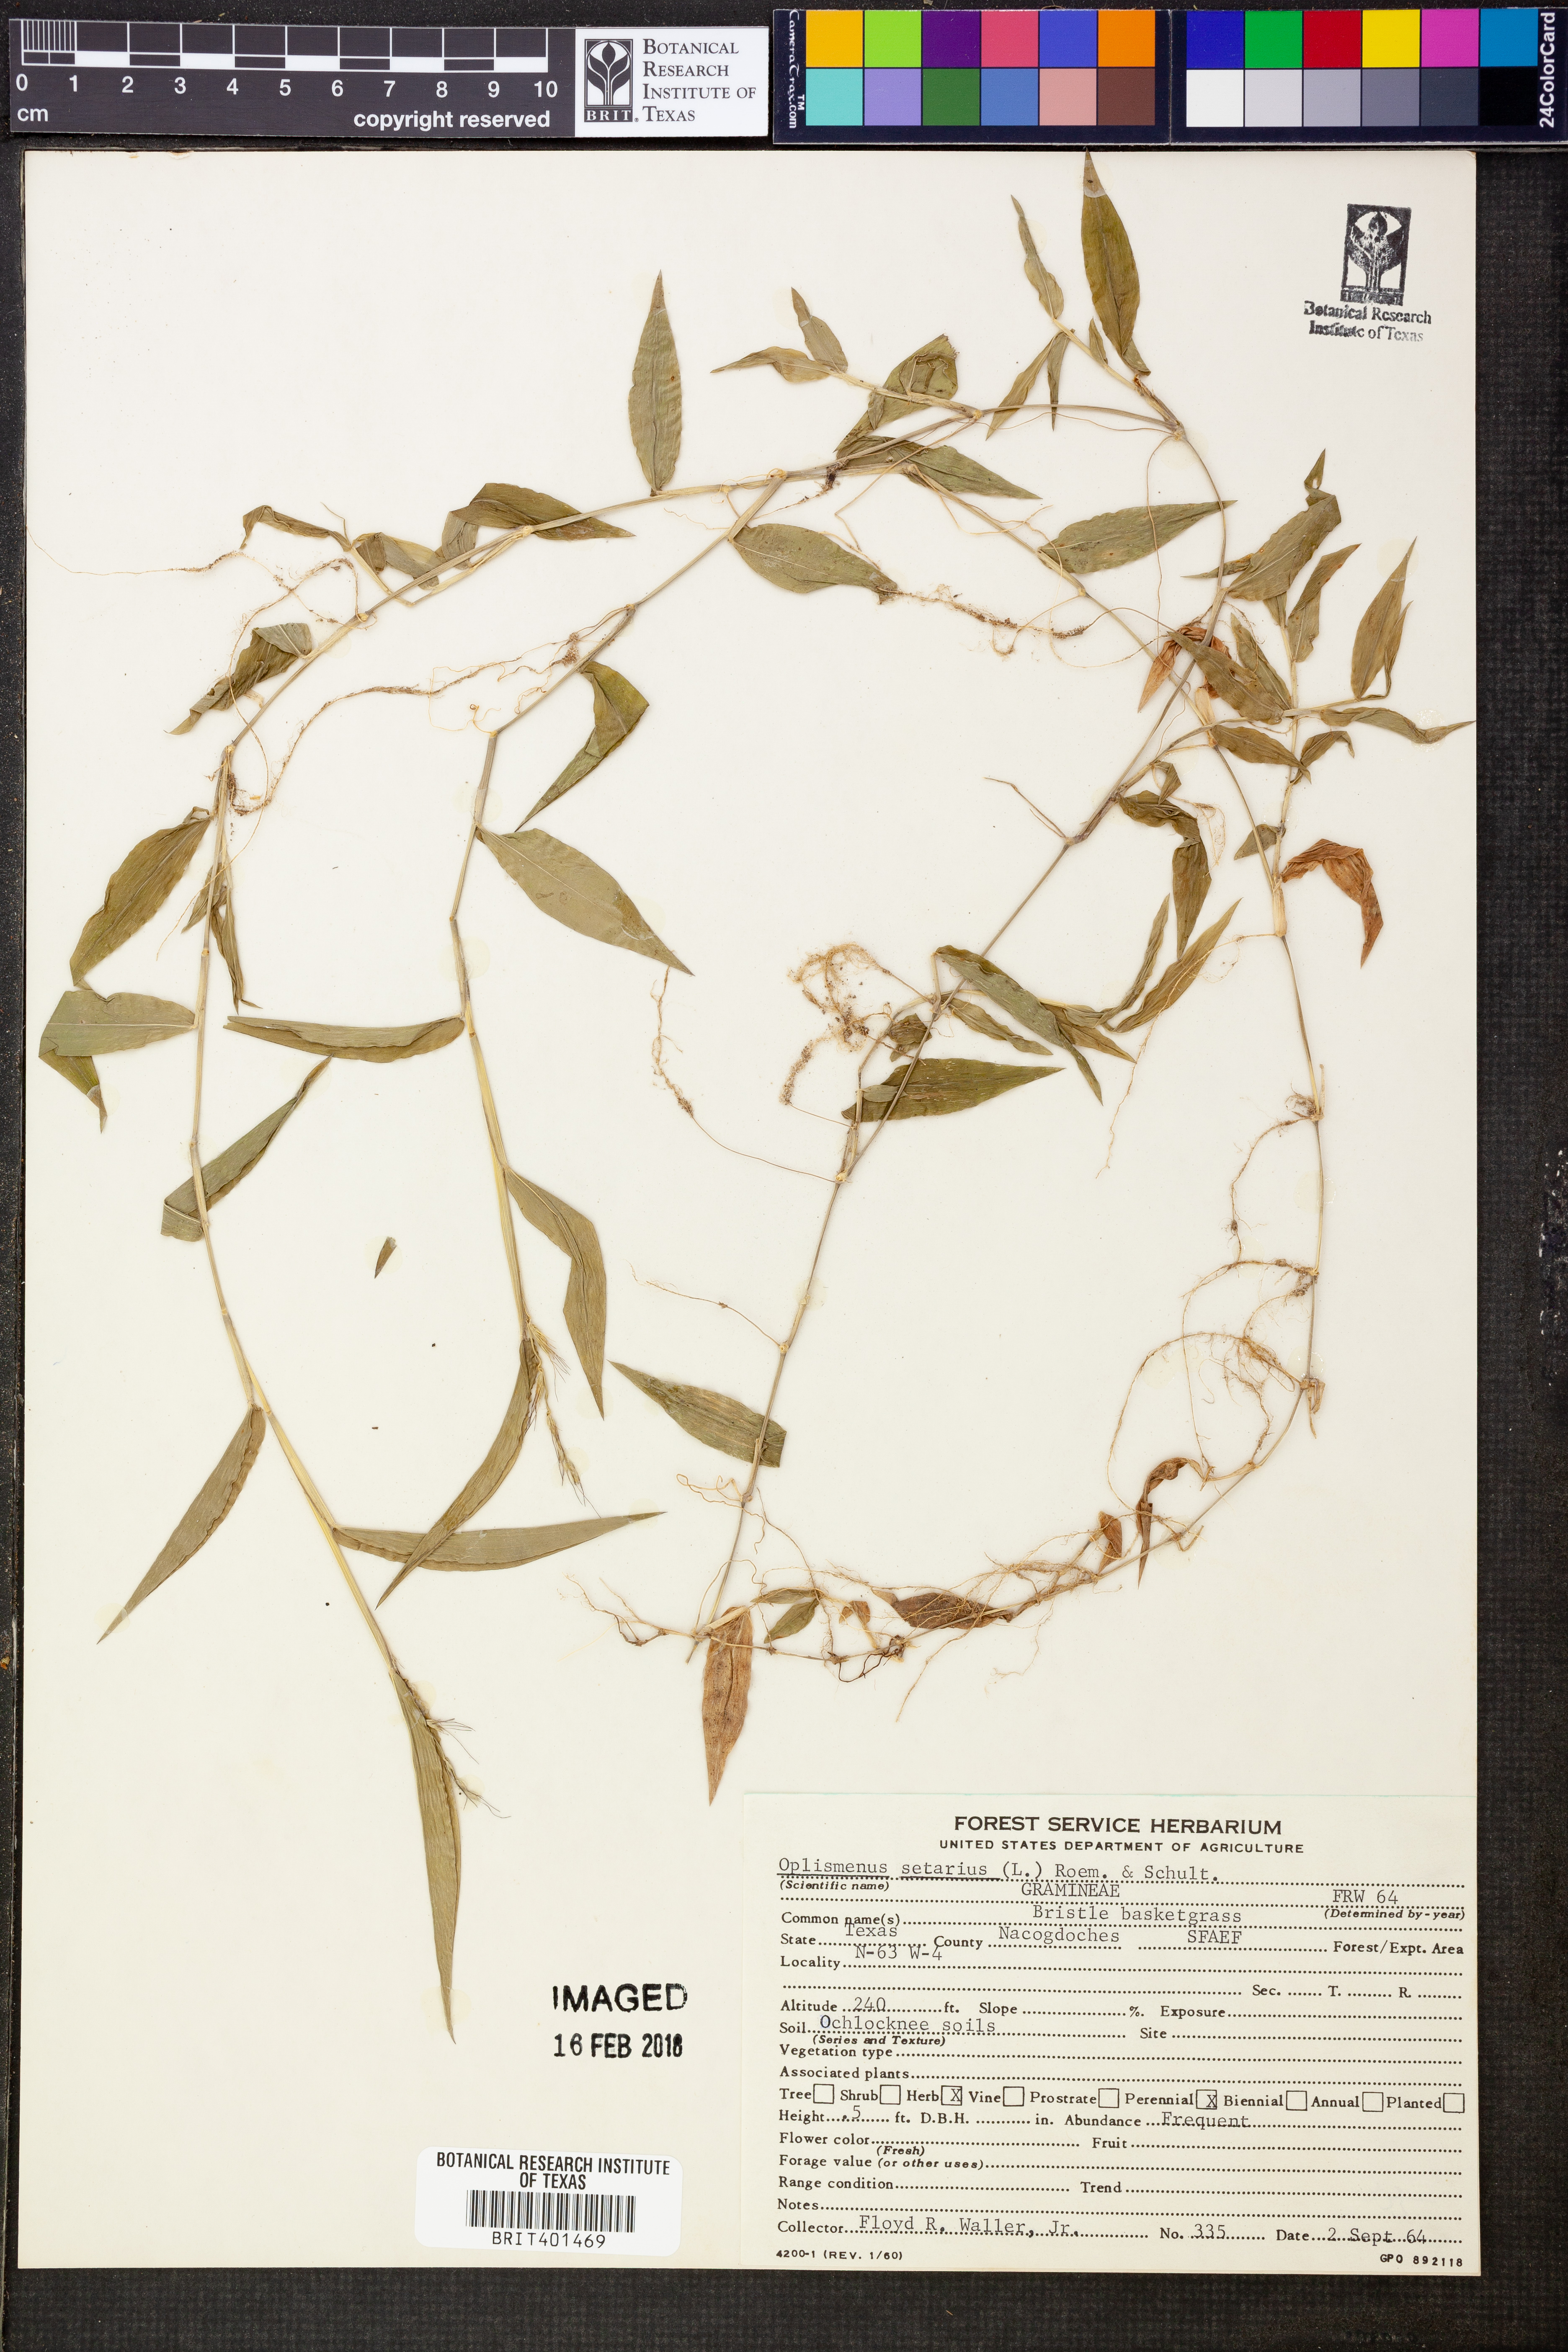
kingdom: Plantae
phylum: Tracheophyta
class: Liliopsida
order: Poales
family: Poaceae
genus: Oplismenus
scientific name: Oplismenus compositus
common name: Running mountain grass
